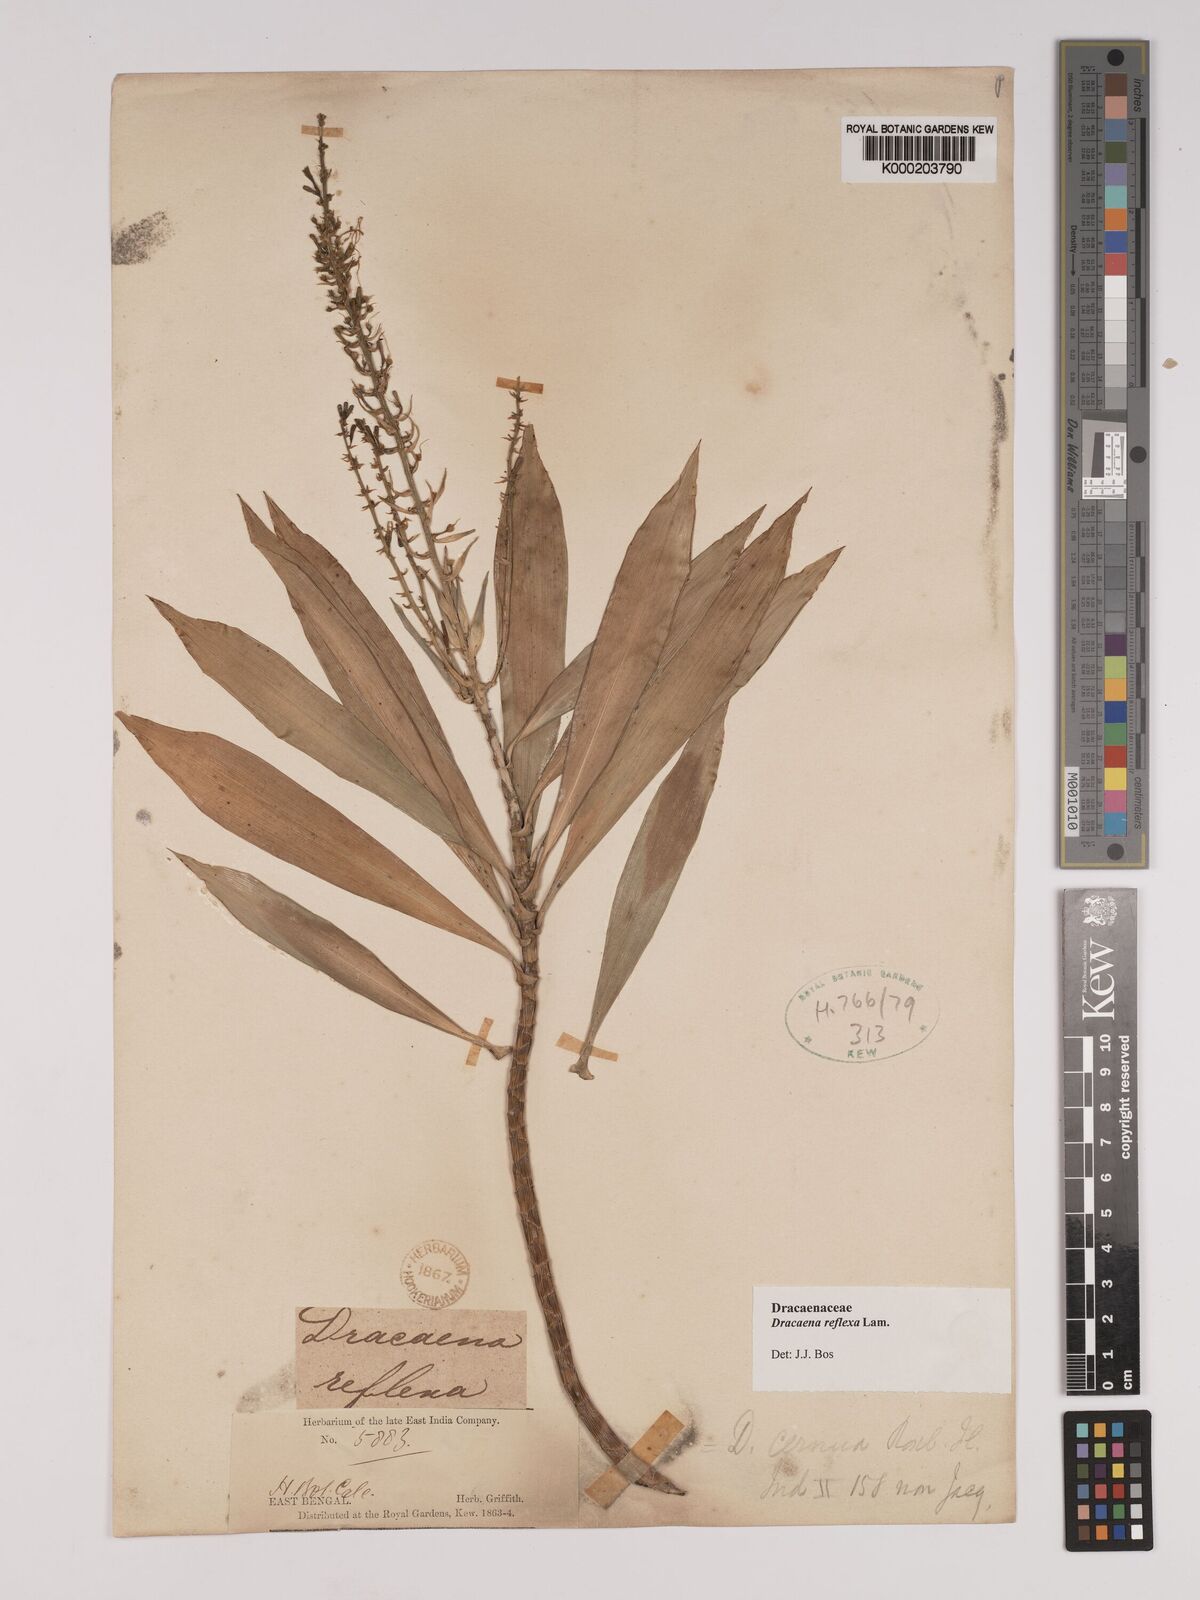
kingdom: Plantae
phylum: Tracheophyta
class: Liliopsida
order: Asparagales
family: Asparagaceae
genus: Dracaena
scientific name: Dracaena reflexa
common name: Song-of-india
